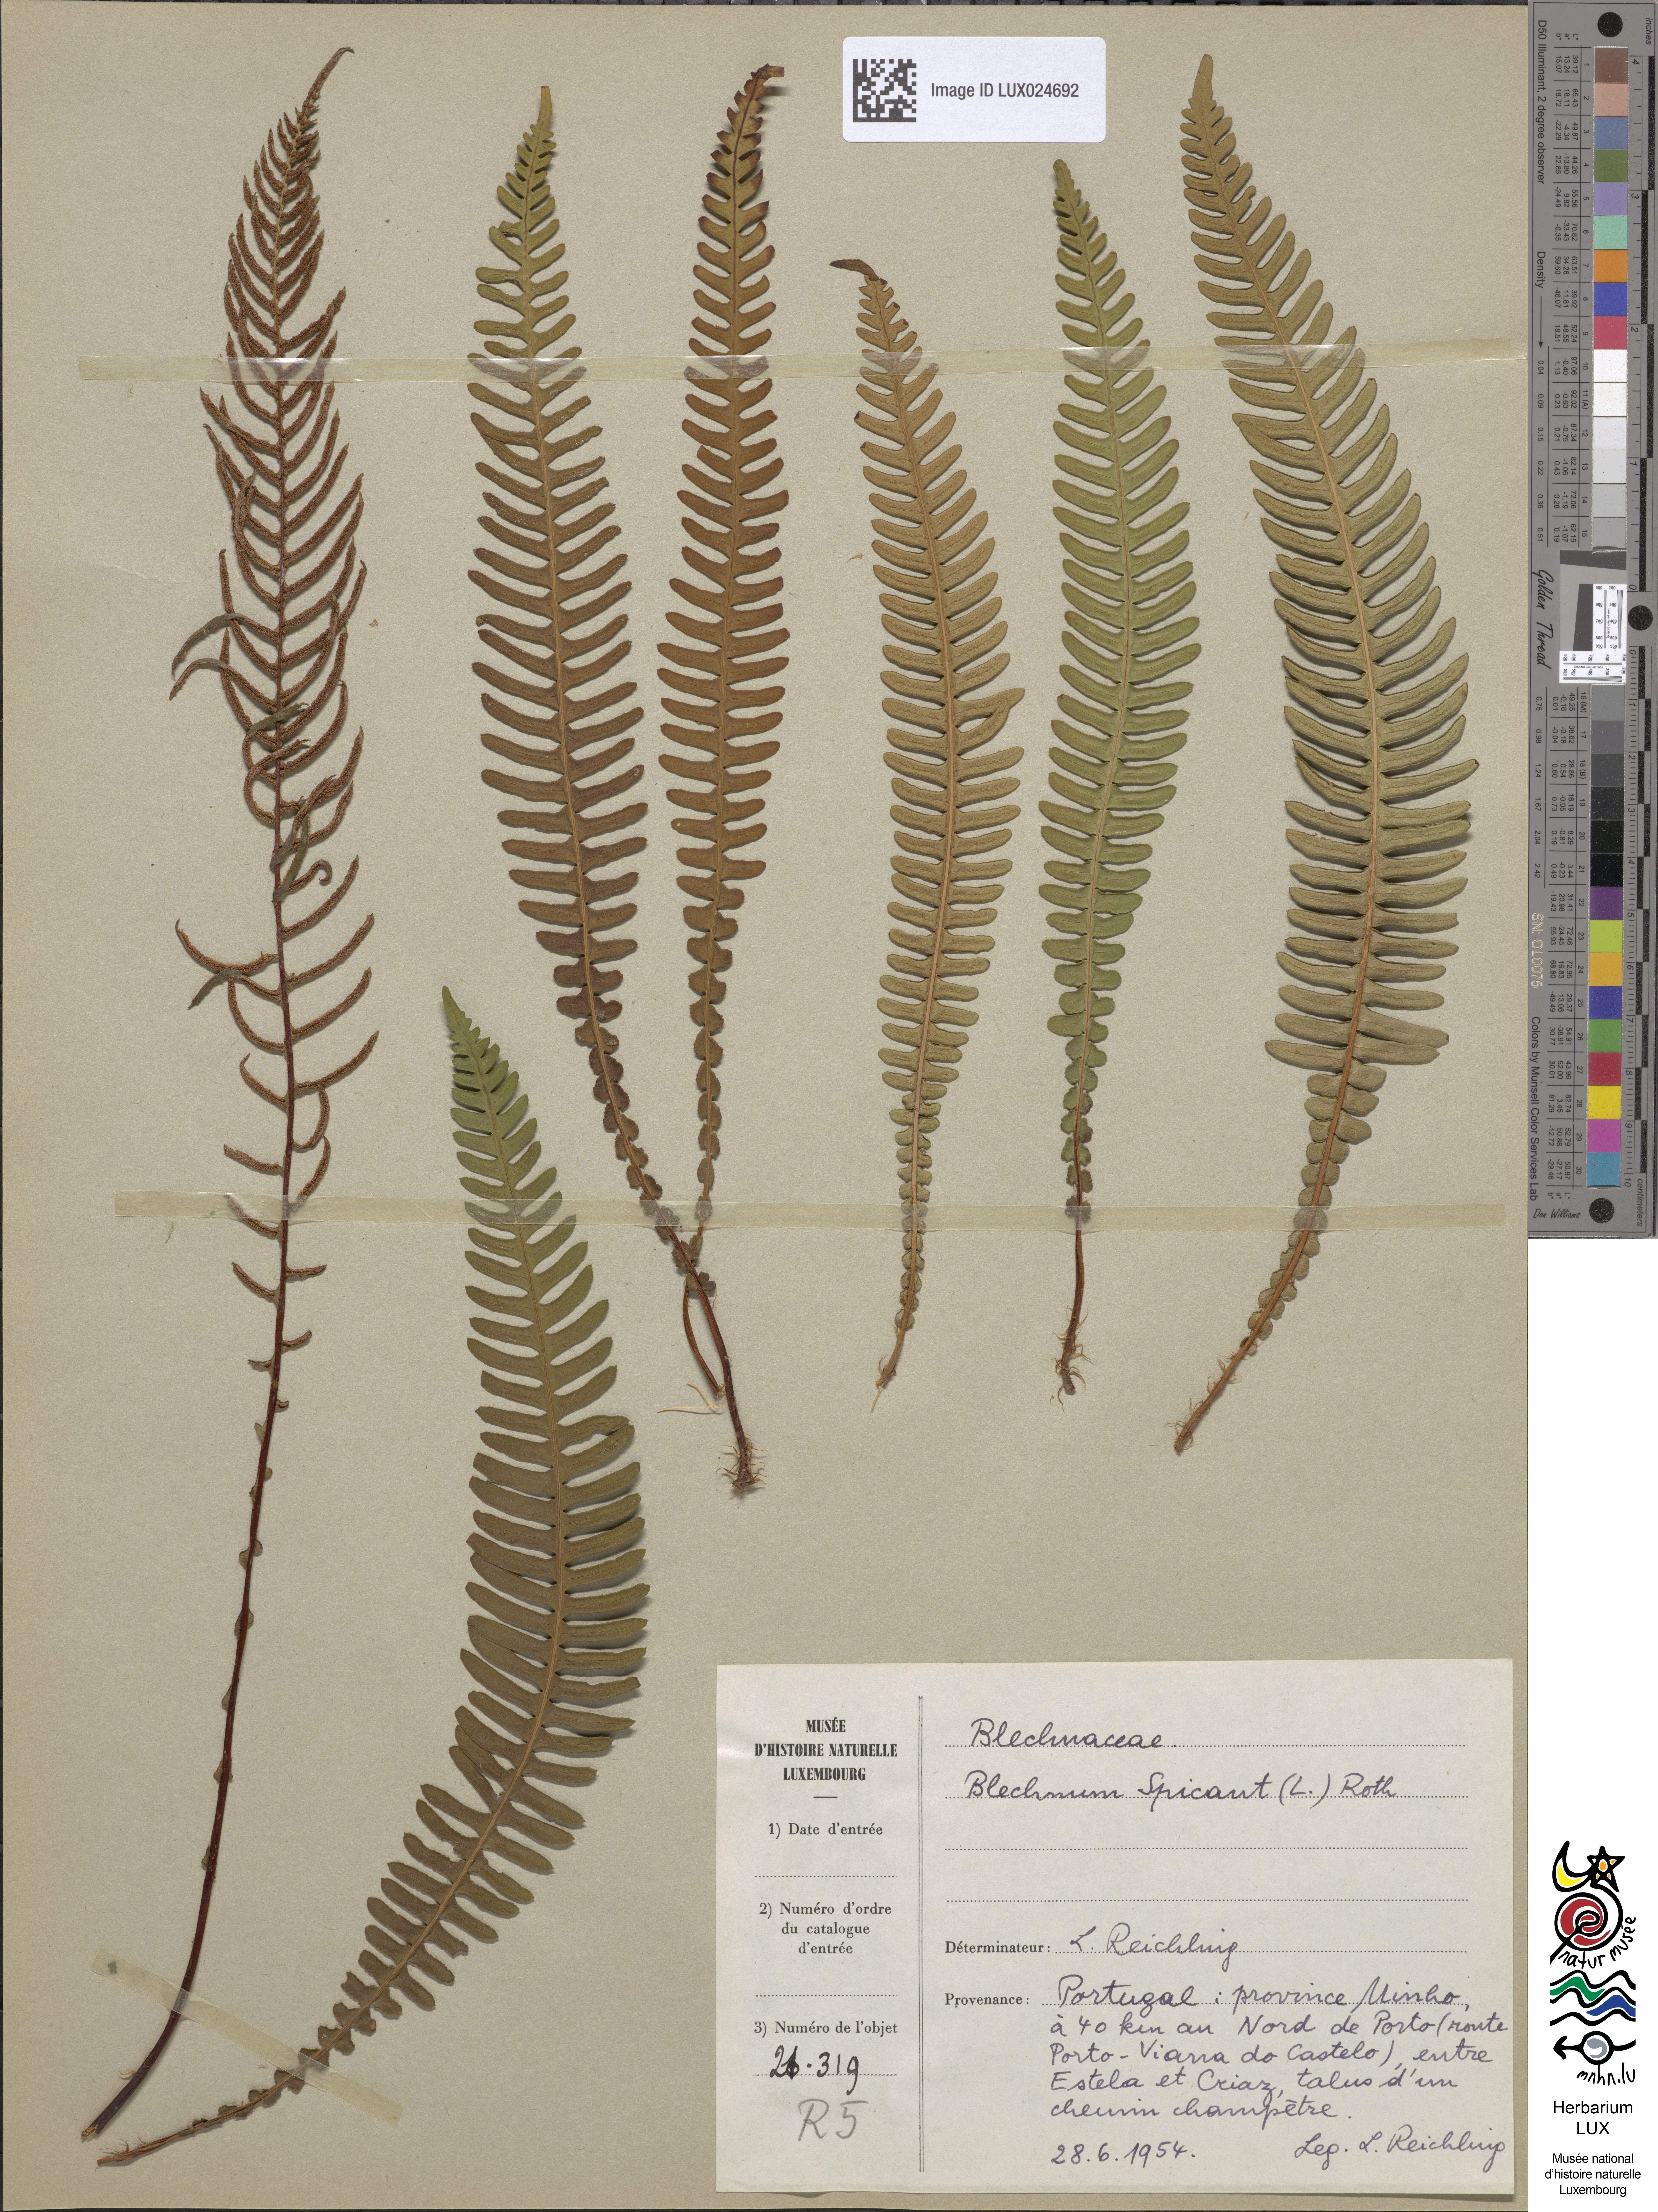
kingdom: Plantae
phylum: Tracheophyta
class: Polypodiopsida
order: Polypodiales
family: Blechnaceae
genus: Struthiopteris
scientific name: Struthiopteris spicant
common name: Deer fern
